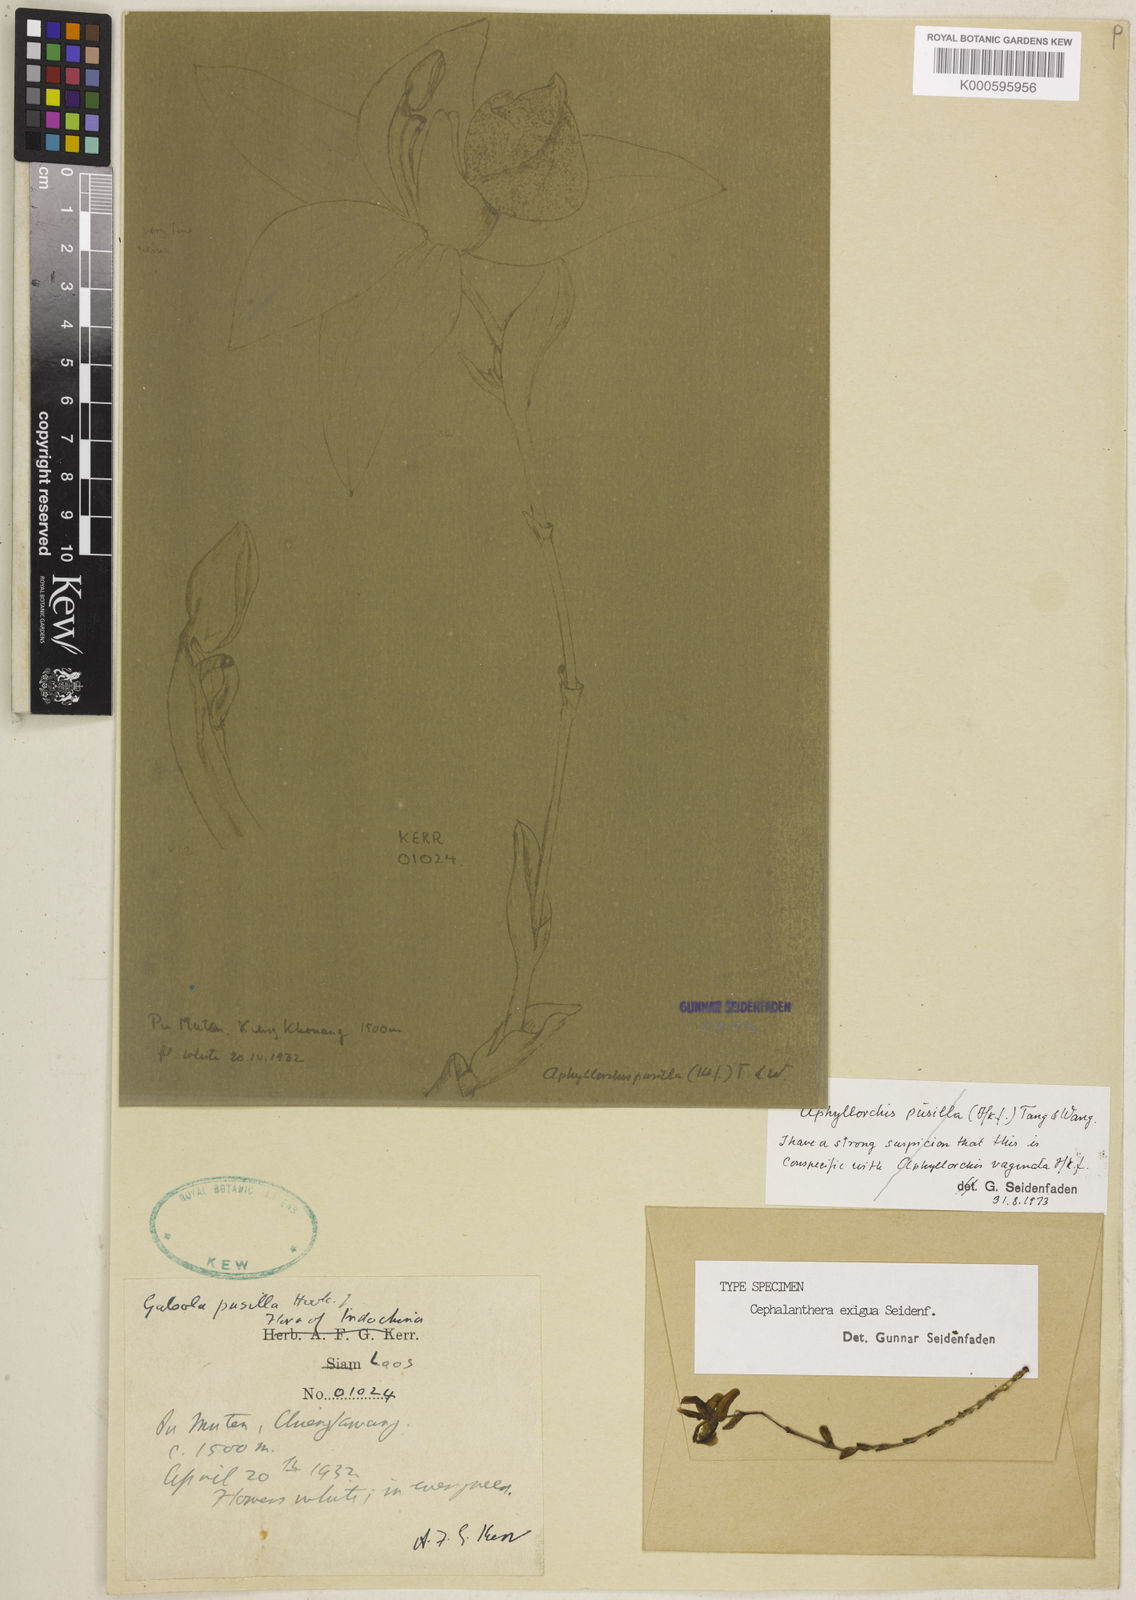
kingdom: Plantae
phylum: Tracheophyta
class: Liliopsida
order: Asparagales
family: Orchidaceae
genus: Cephalanthera
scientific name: Cephalanthera exigua
